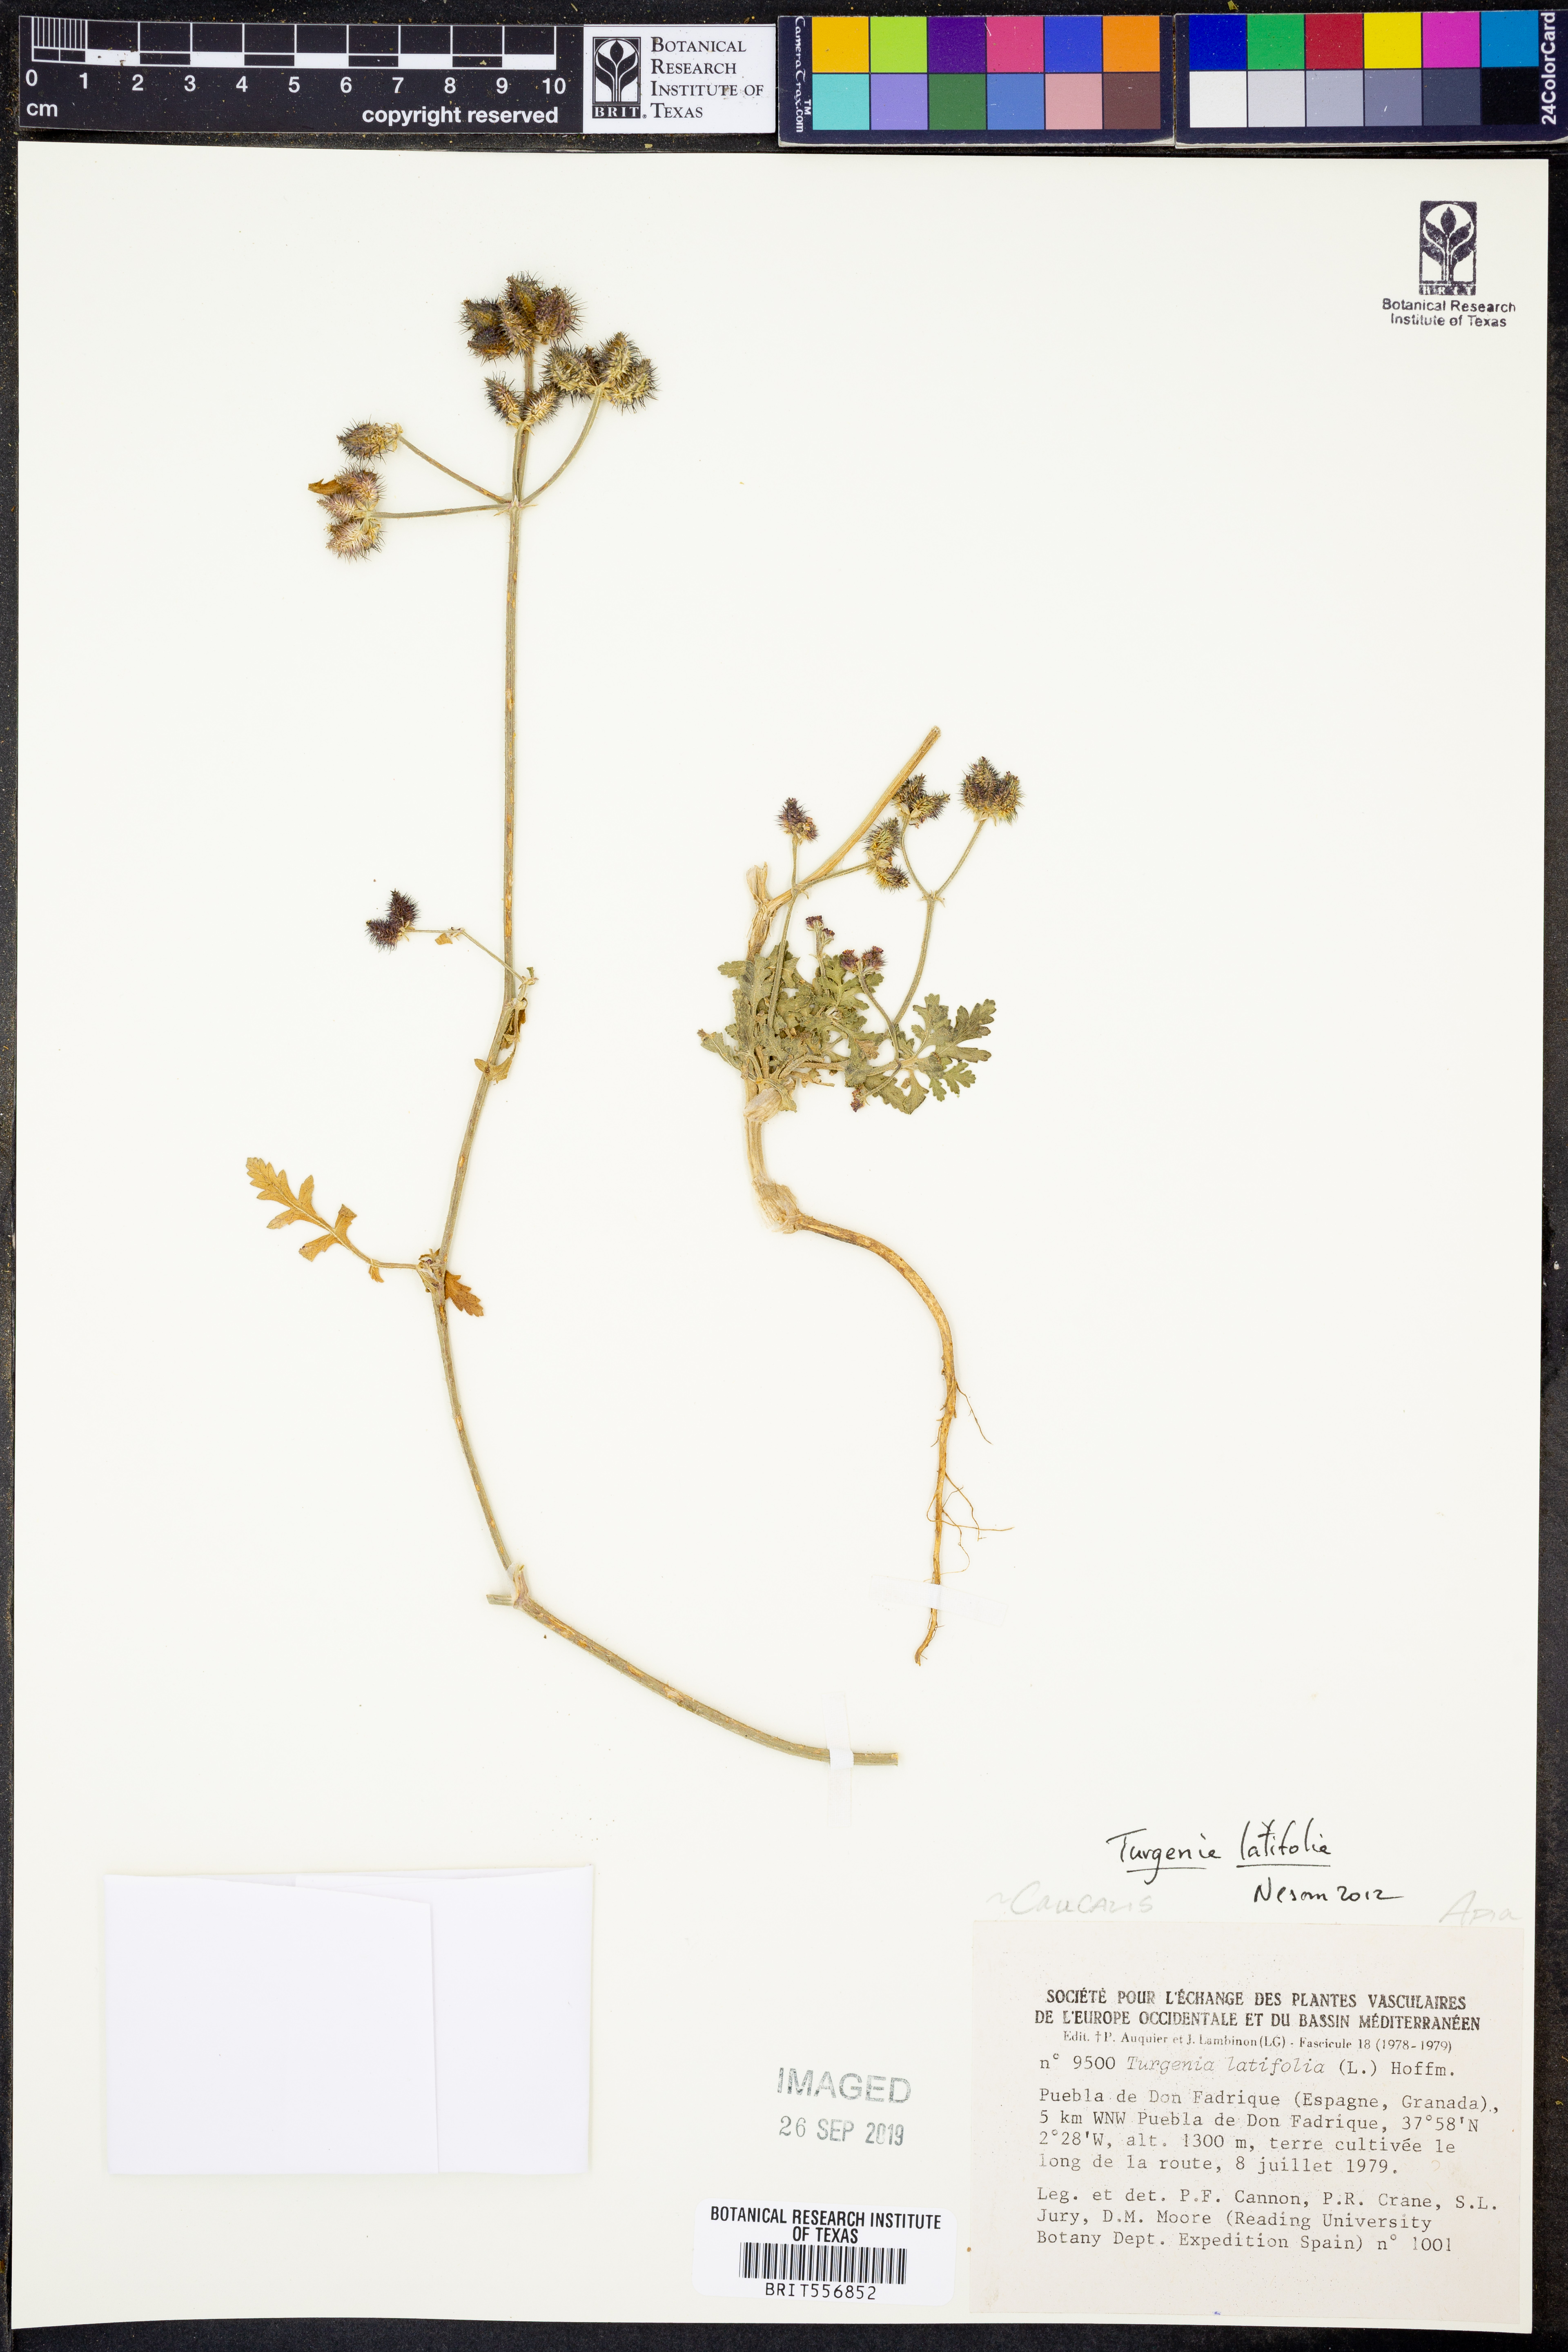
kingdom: Plantae
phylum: Tracheophyta
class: Magnoliopsida
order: Apiales
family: Apiaceae
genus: Turgenia
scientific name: Turgenia latifolia
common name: Greater bur-parsley
